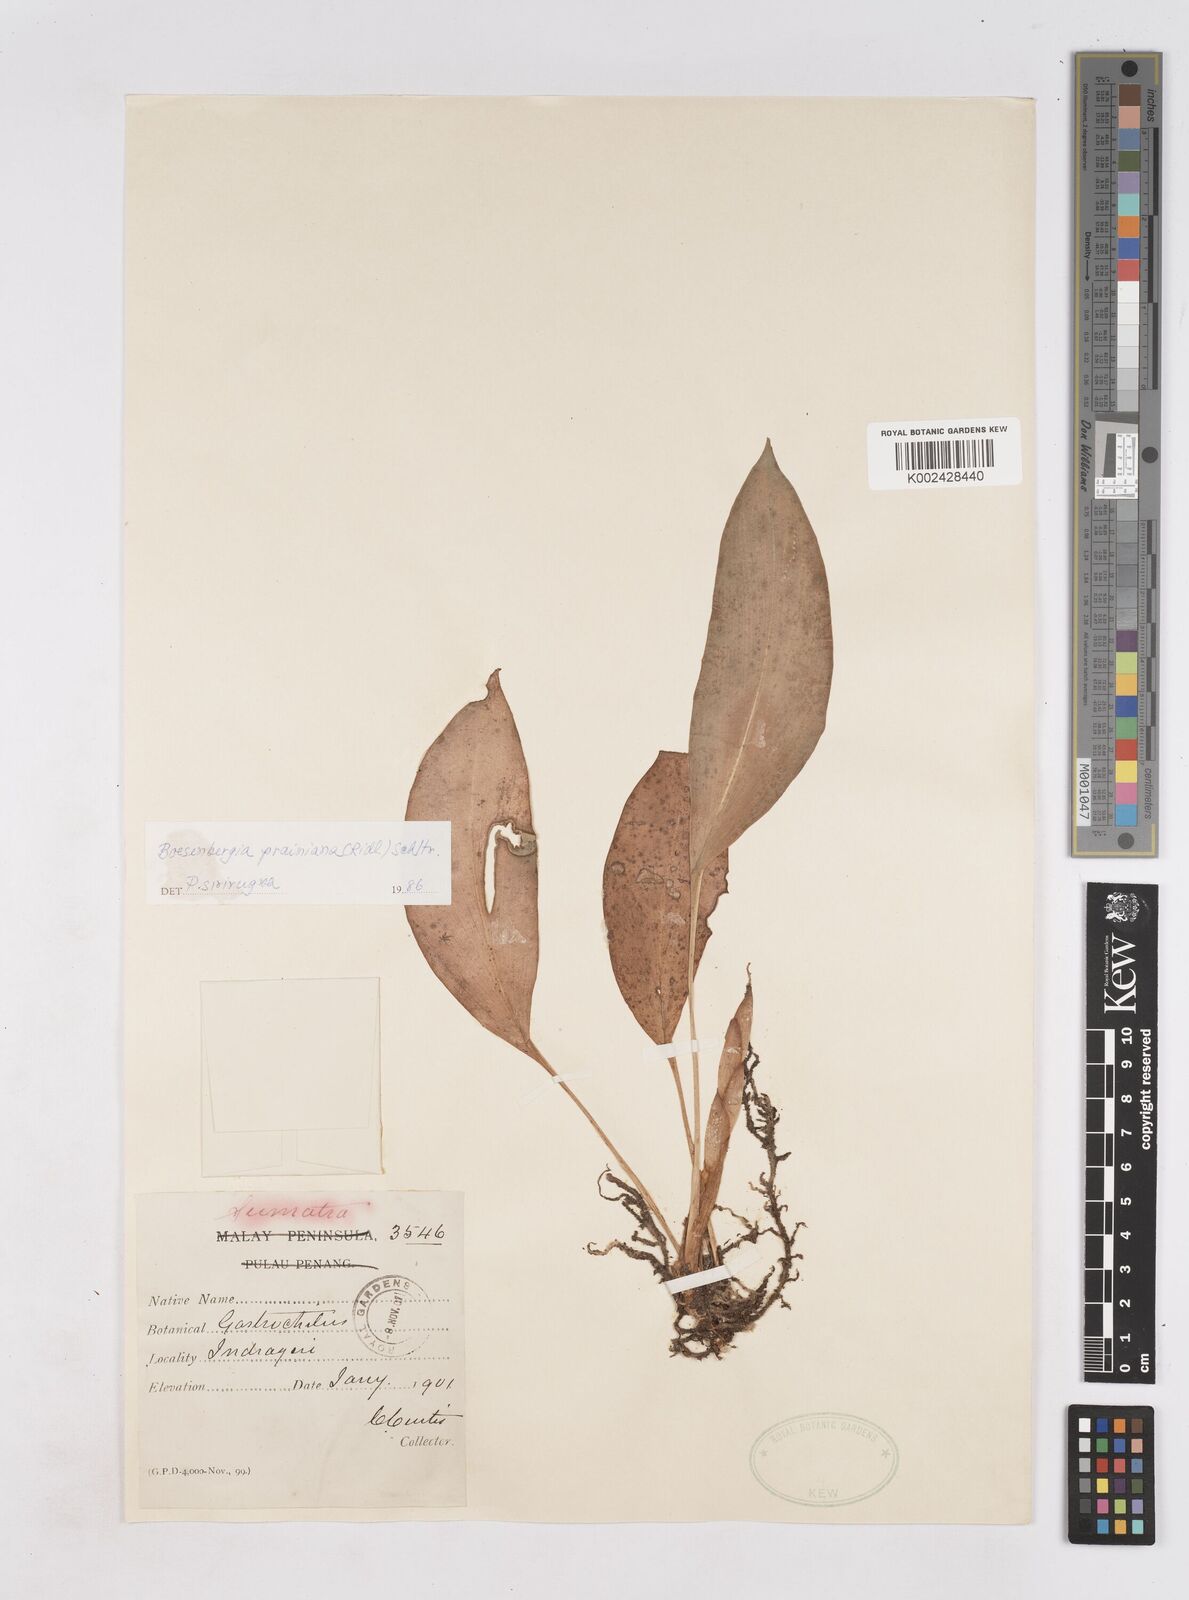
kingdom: Plantae
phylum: Tracheophyta
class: Liliopsida
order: Zingiberales
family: Zingiberaceae
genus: Boesenbergia
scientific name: Boesenbergia prainiana
